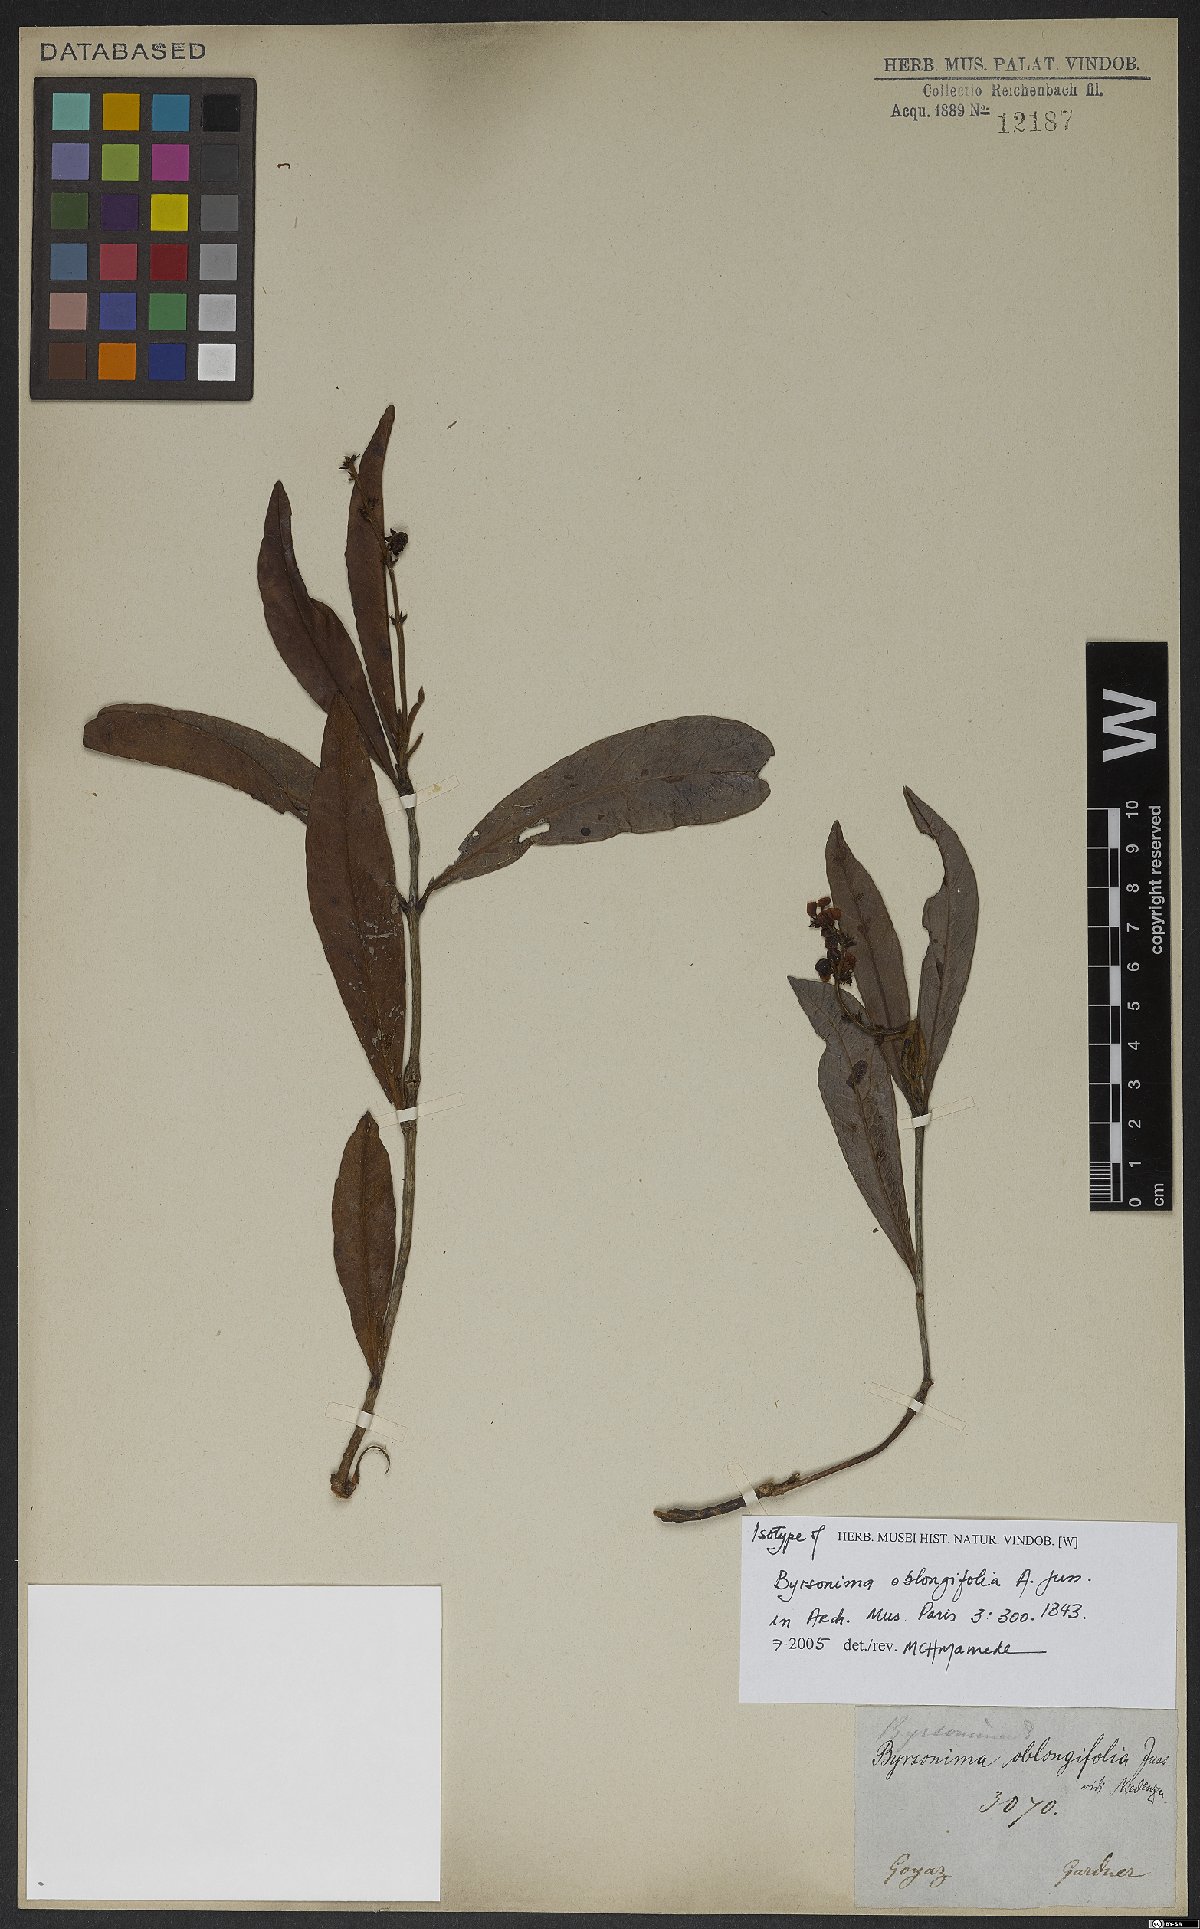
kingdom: Plantae
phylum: Tracheophyta
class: Magnoliopsida
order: Malpighiales
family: Malpighiaceae
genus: Byrsonima
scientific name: Byrsonima oblongifolia
